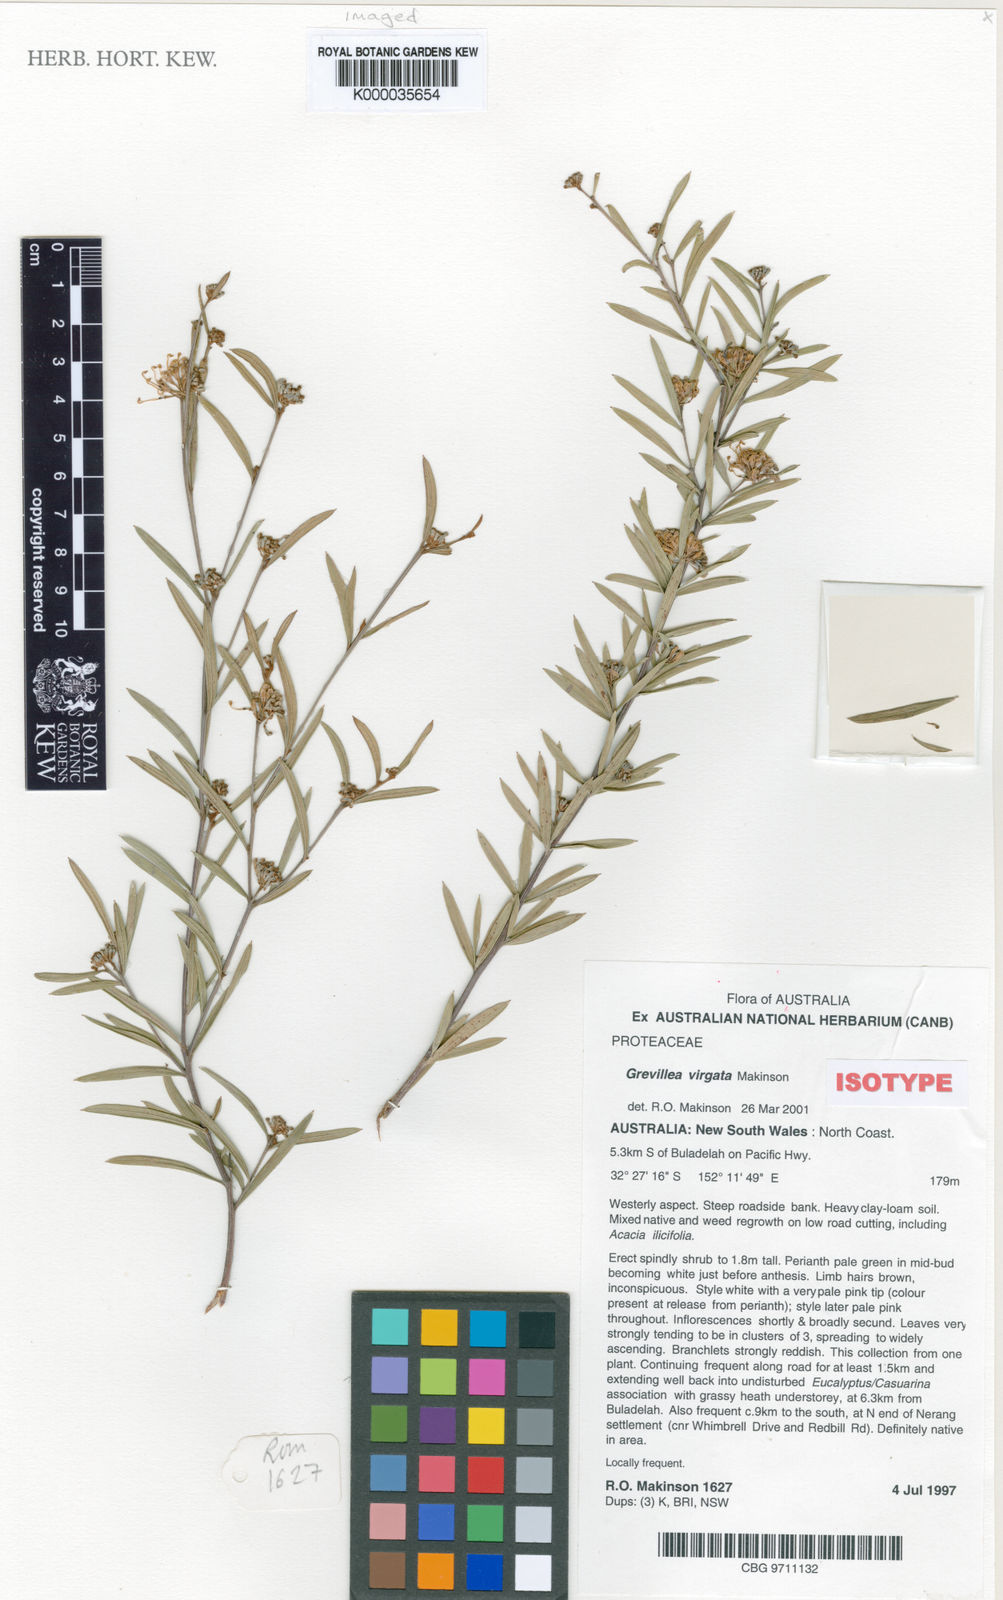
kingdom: Plantae
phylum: Tracheophyta
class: Magnoliopsida
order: Proteales
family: Proteaceae
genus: Grevillea
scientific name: Grevillea virgata
